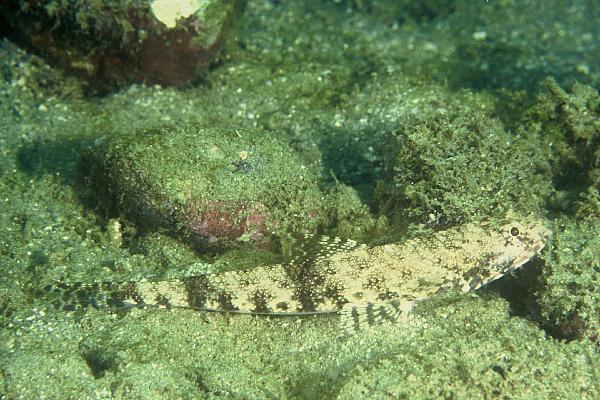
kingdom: Animalia
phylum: Chordata
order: Aulopiformes
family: Synodontidae
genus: Saurida
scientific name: Saurida
